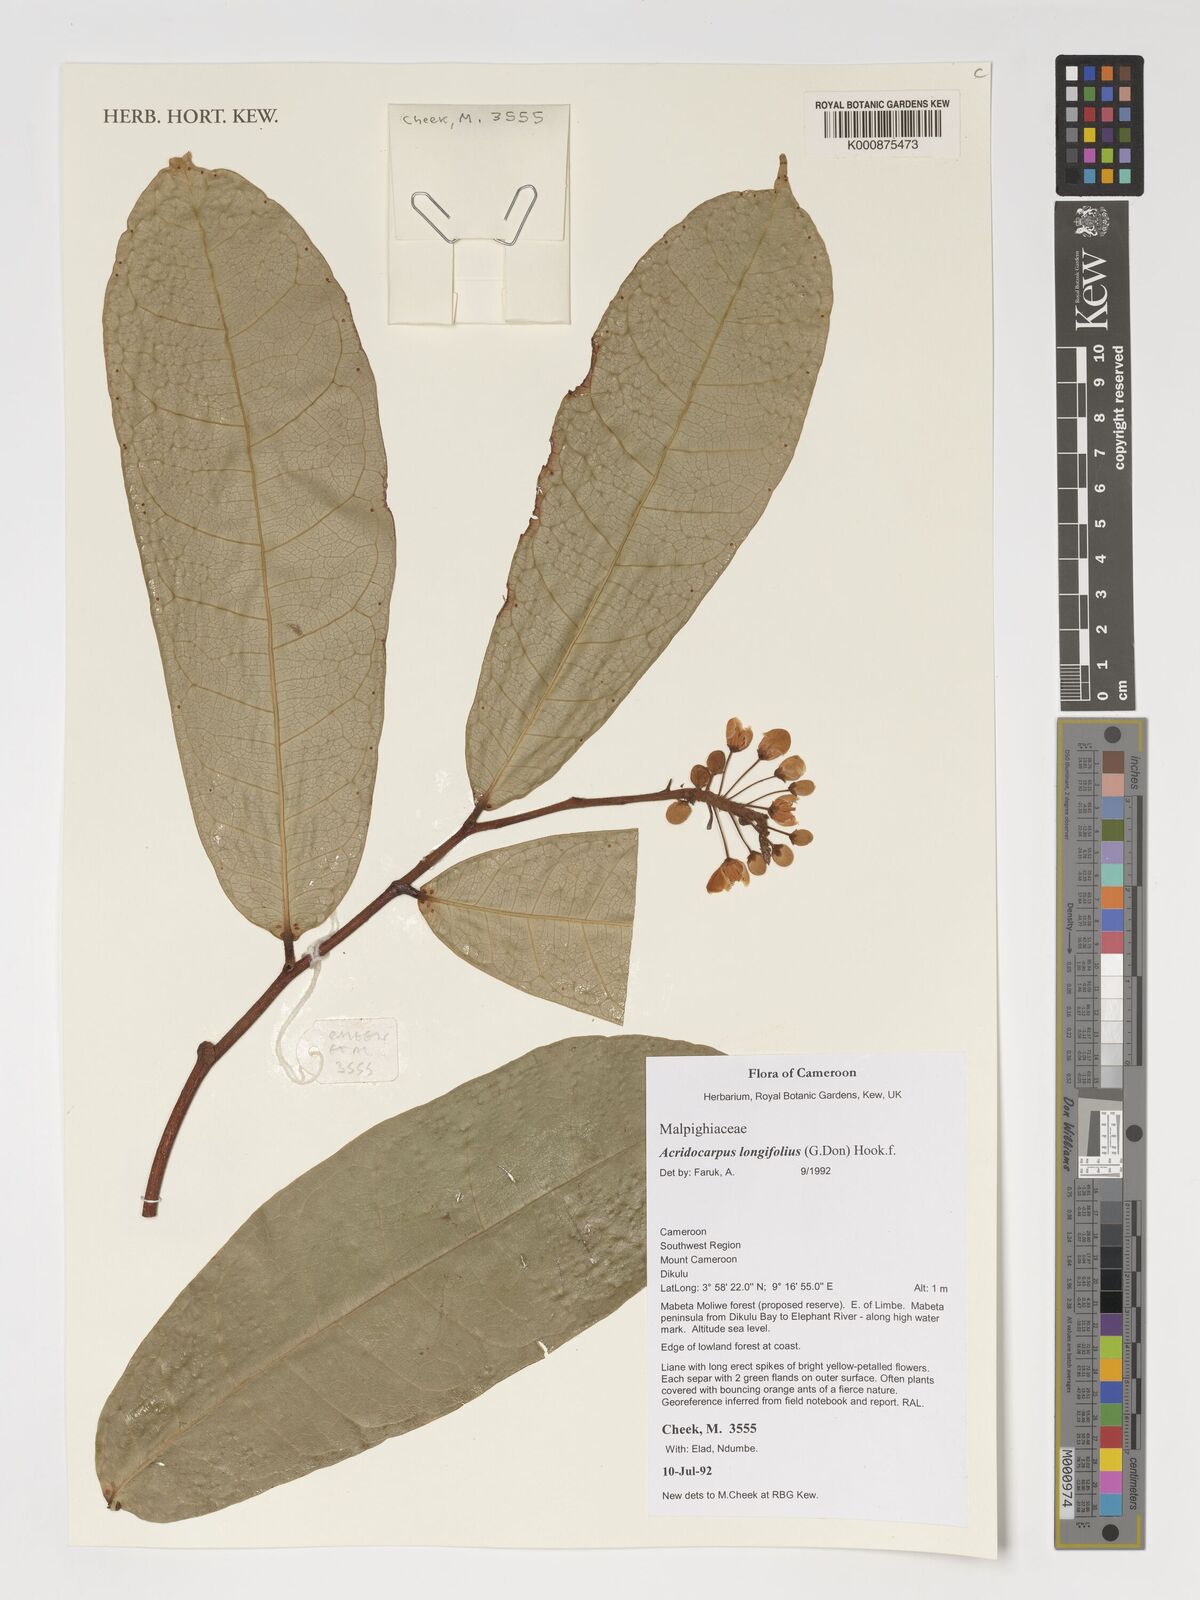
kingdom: Plantae
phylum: Tracheophyta
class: Magnoliopsida
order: Malpighiales
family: Malpighiaceae
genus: Acridocarpus
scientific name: Acridocarpus longifolius
